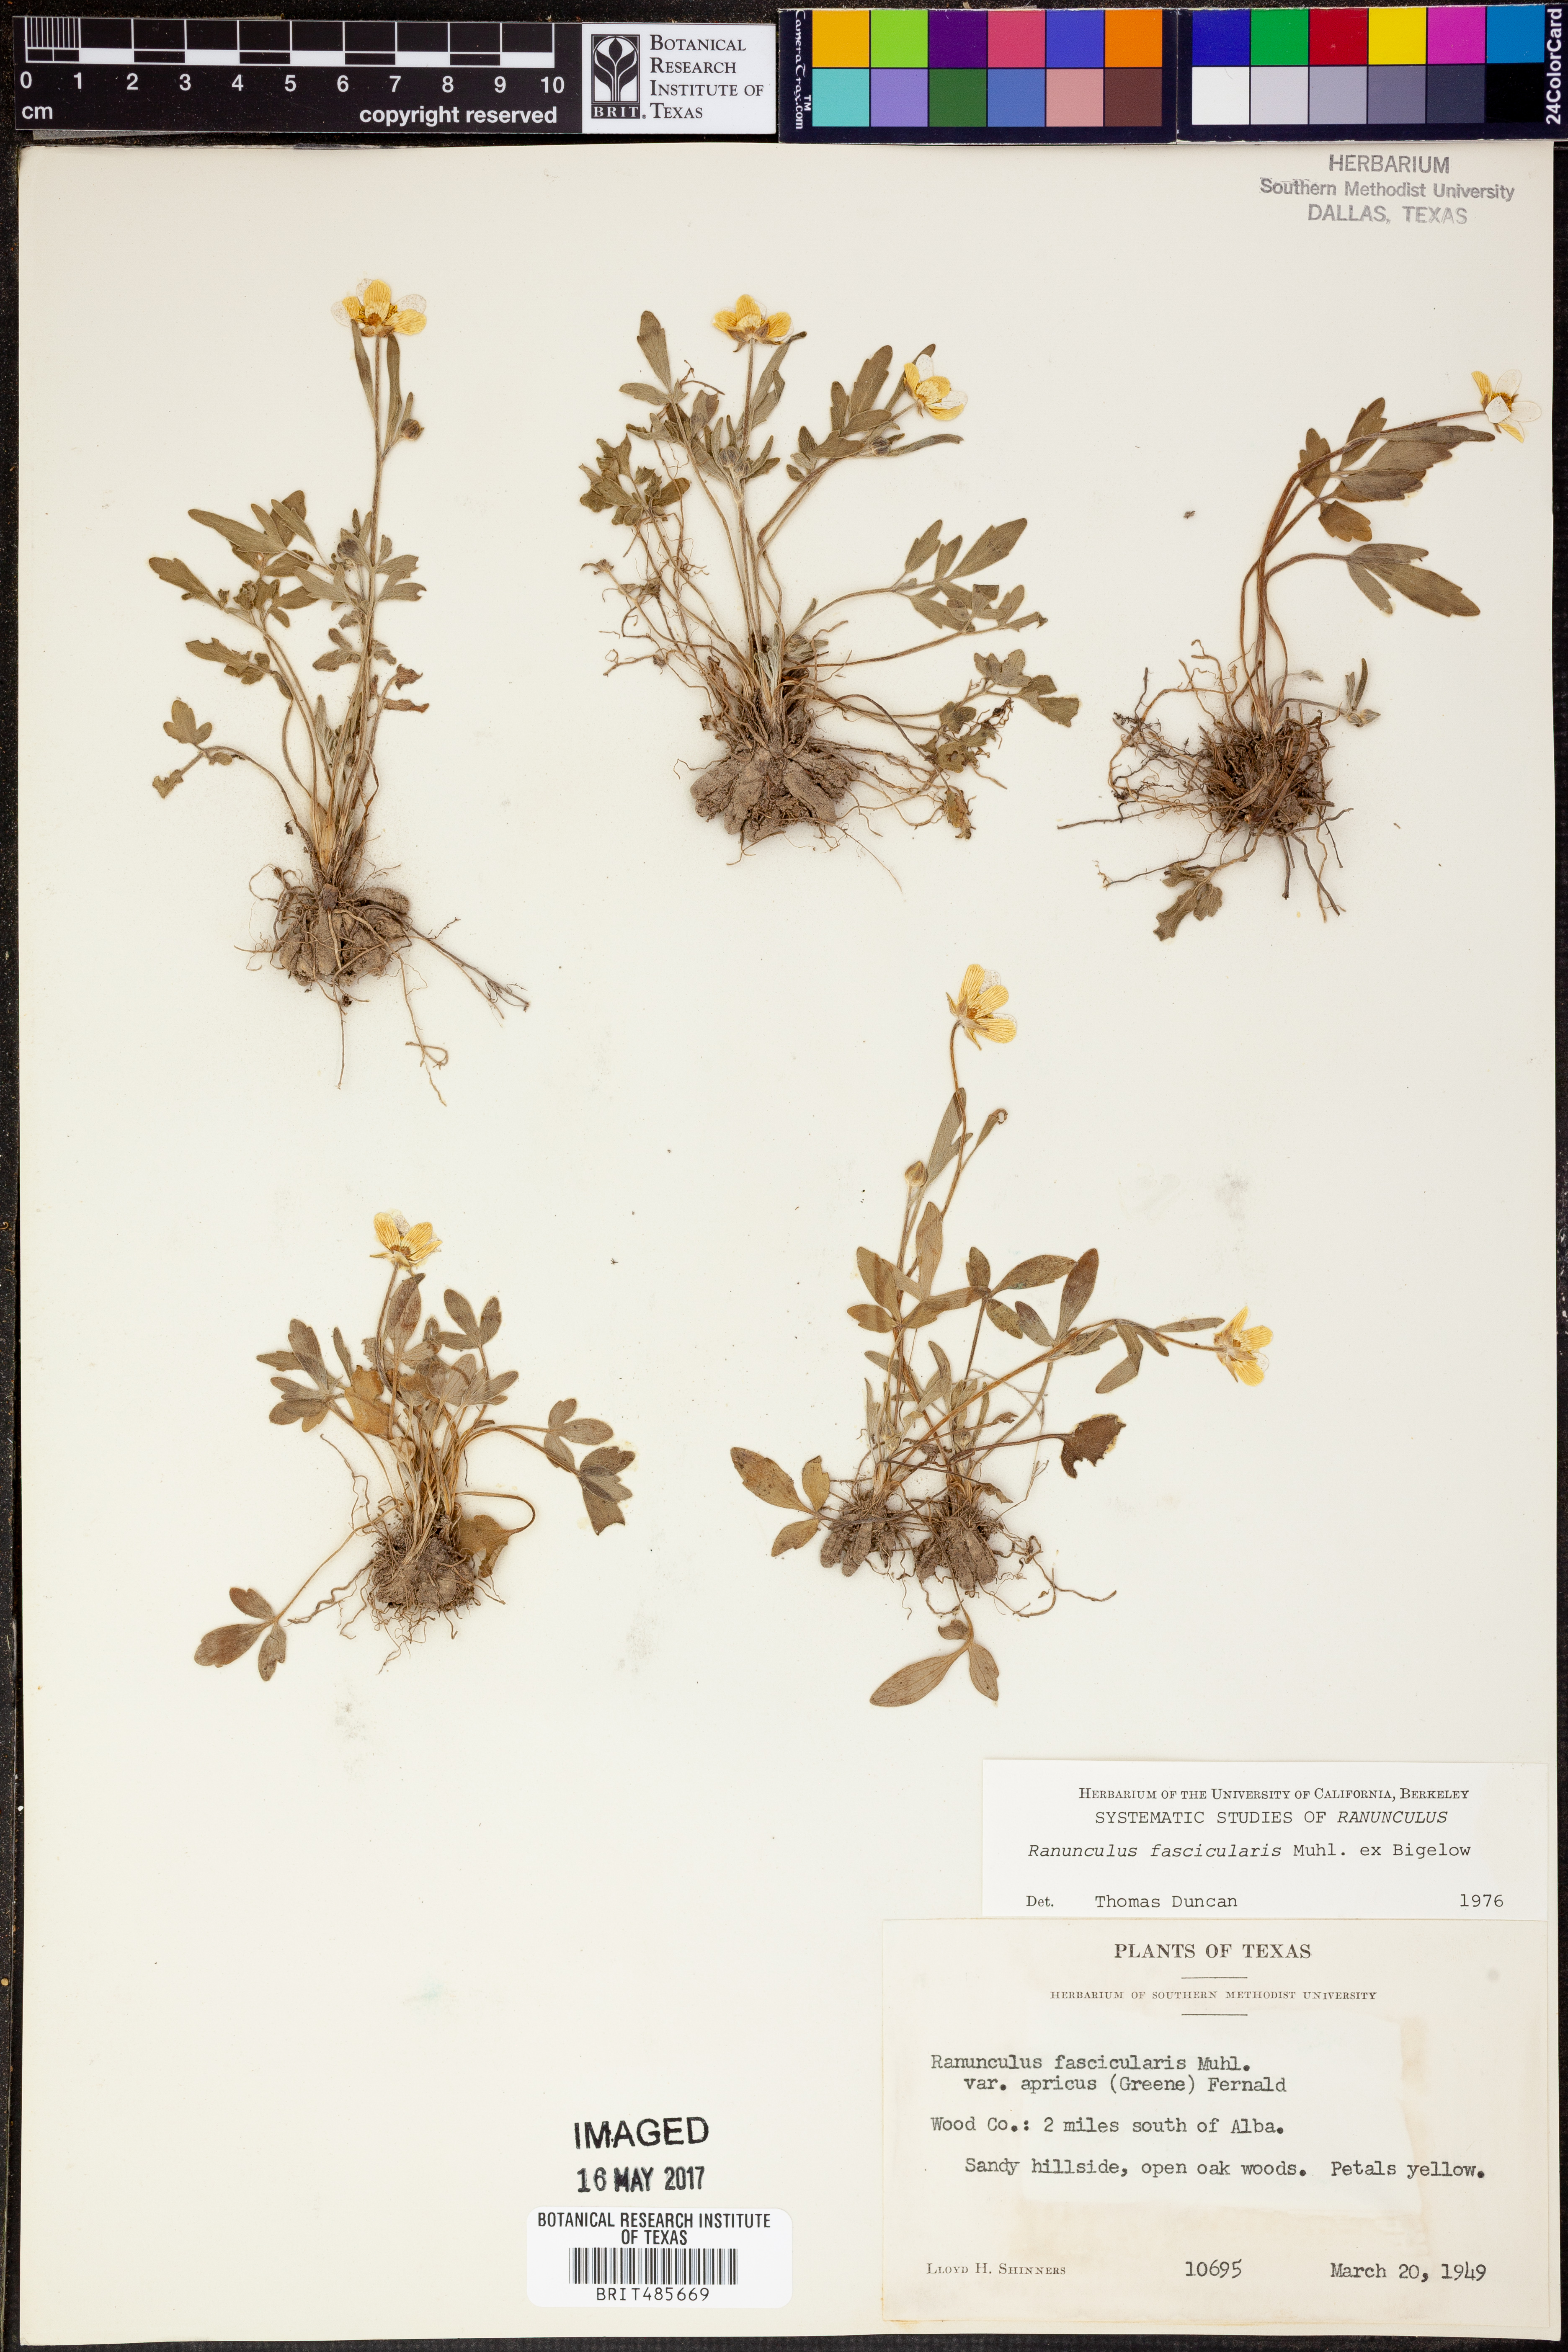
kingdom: Plantae
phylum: Tracheophyta
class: Magnoliopsida
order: Ranunculales
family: Ranunculaceae
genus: Ranunculus
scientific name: Ranunculus fascicularis
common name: Early buttercup
